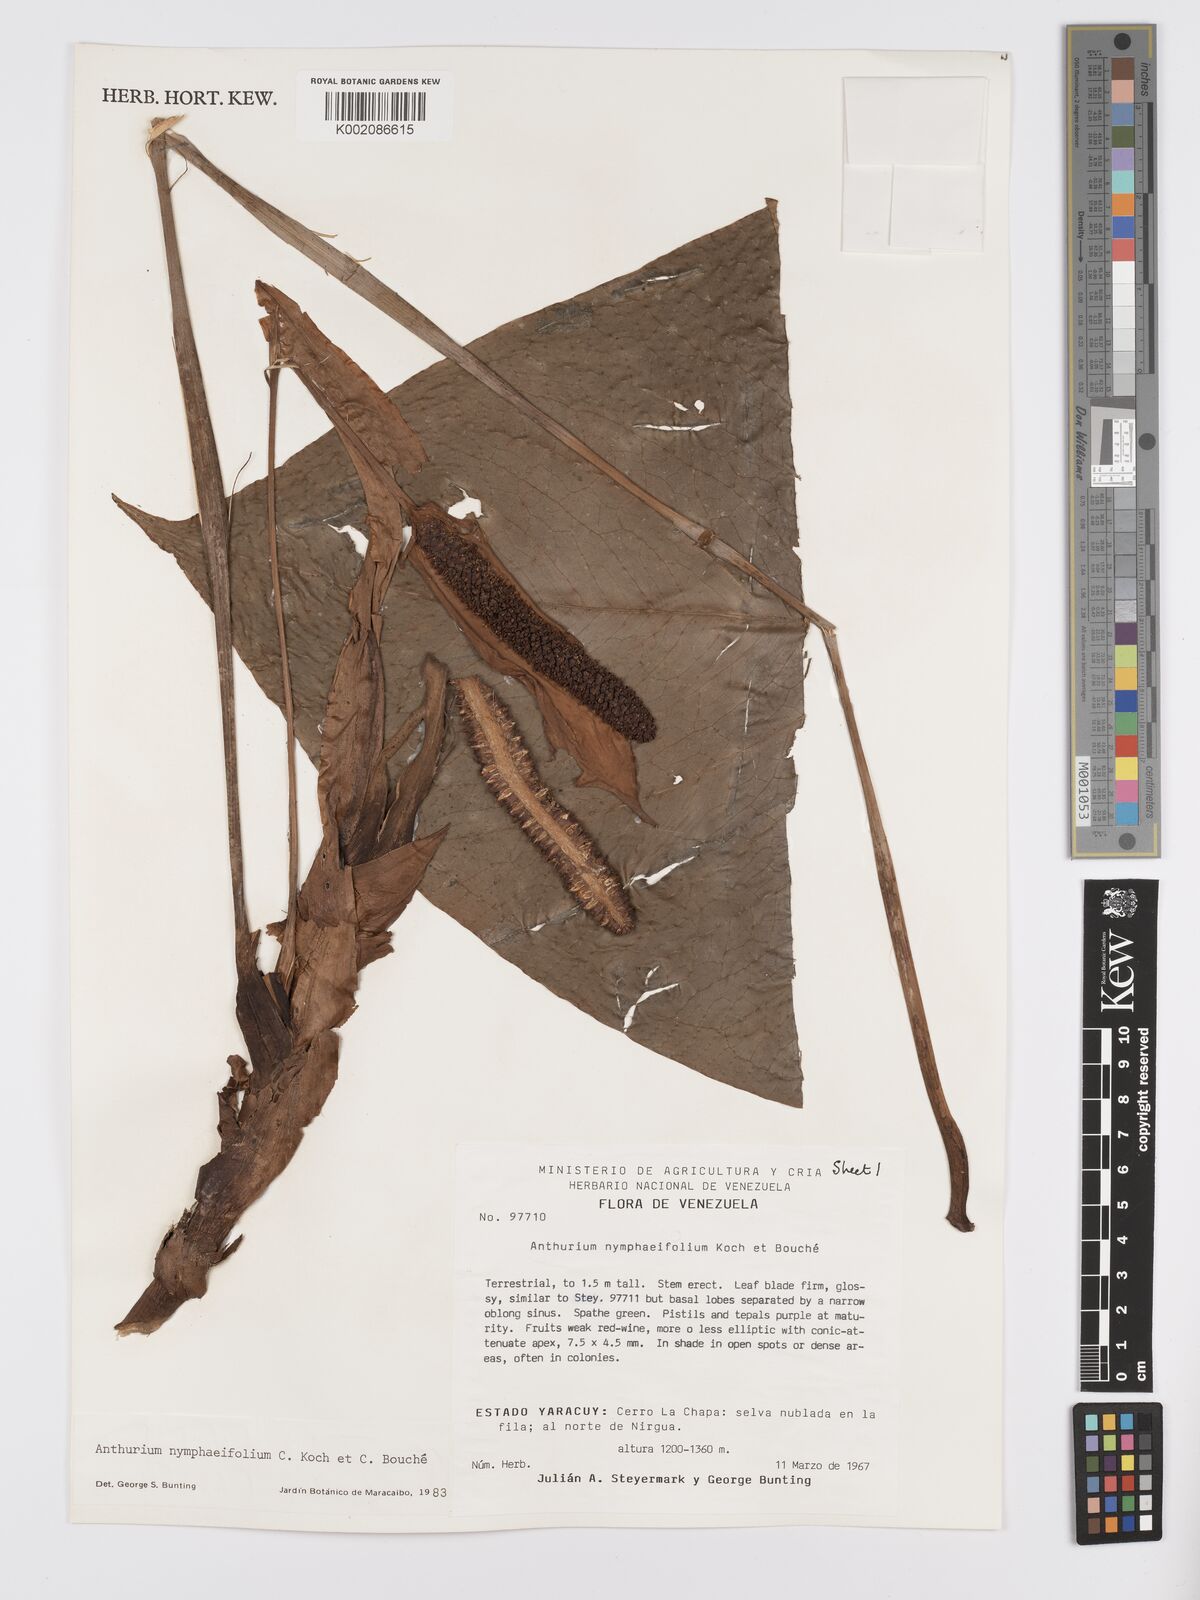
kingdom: Plantae
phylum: Tracheophyta
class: Liliopsida
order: Alismatales
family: Araceae
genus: Anthurium
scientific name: Anthurium nymphaeifolium
